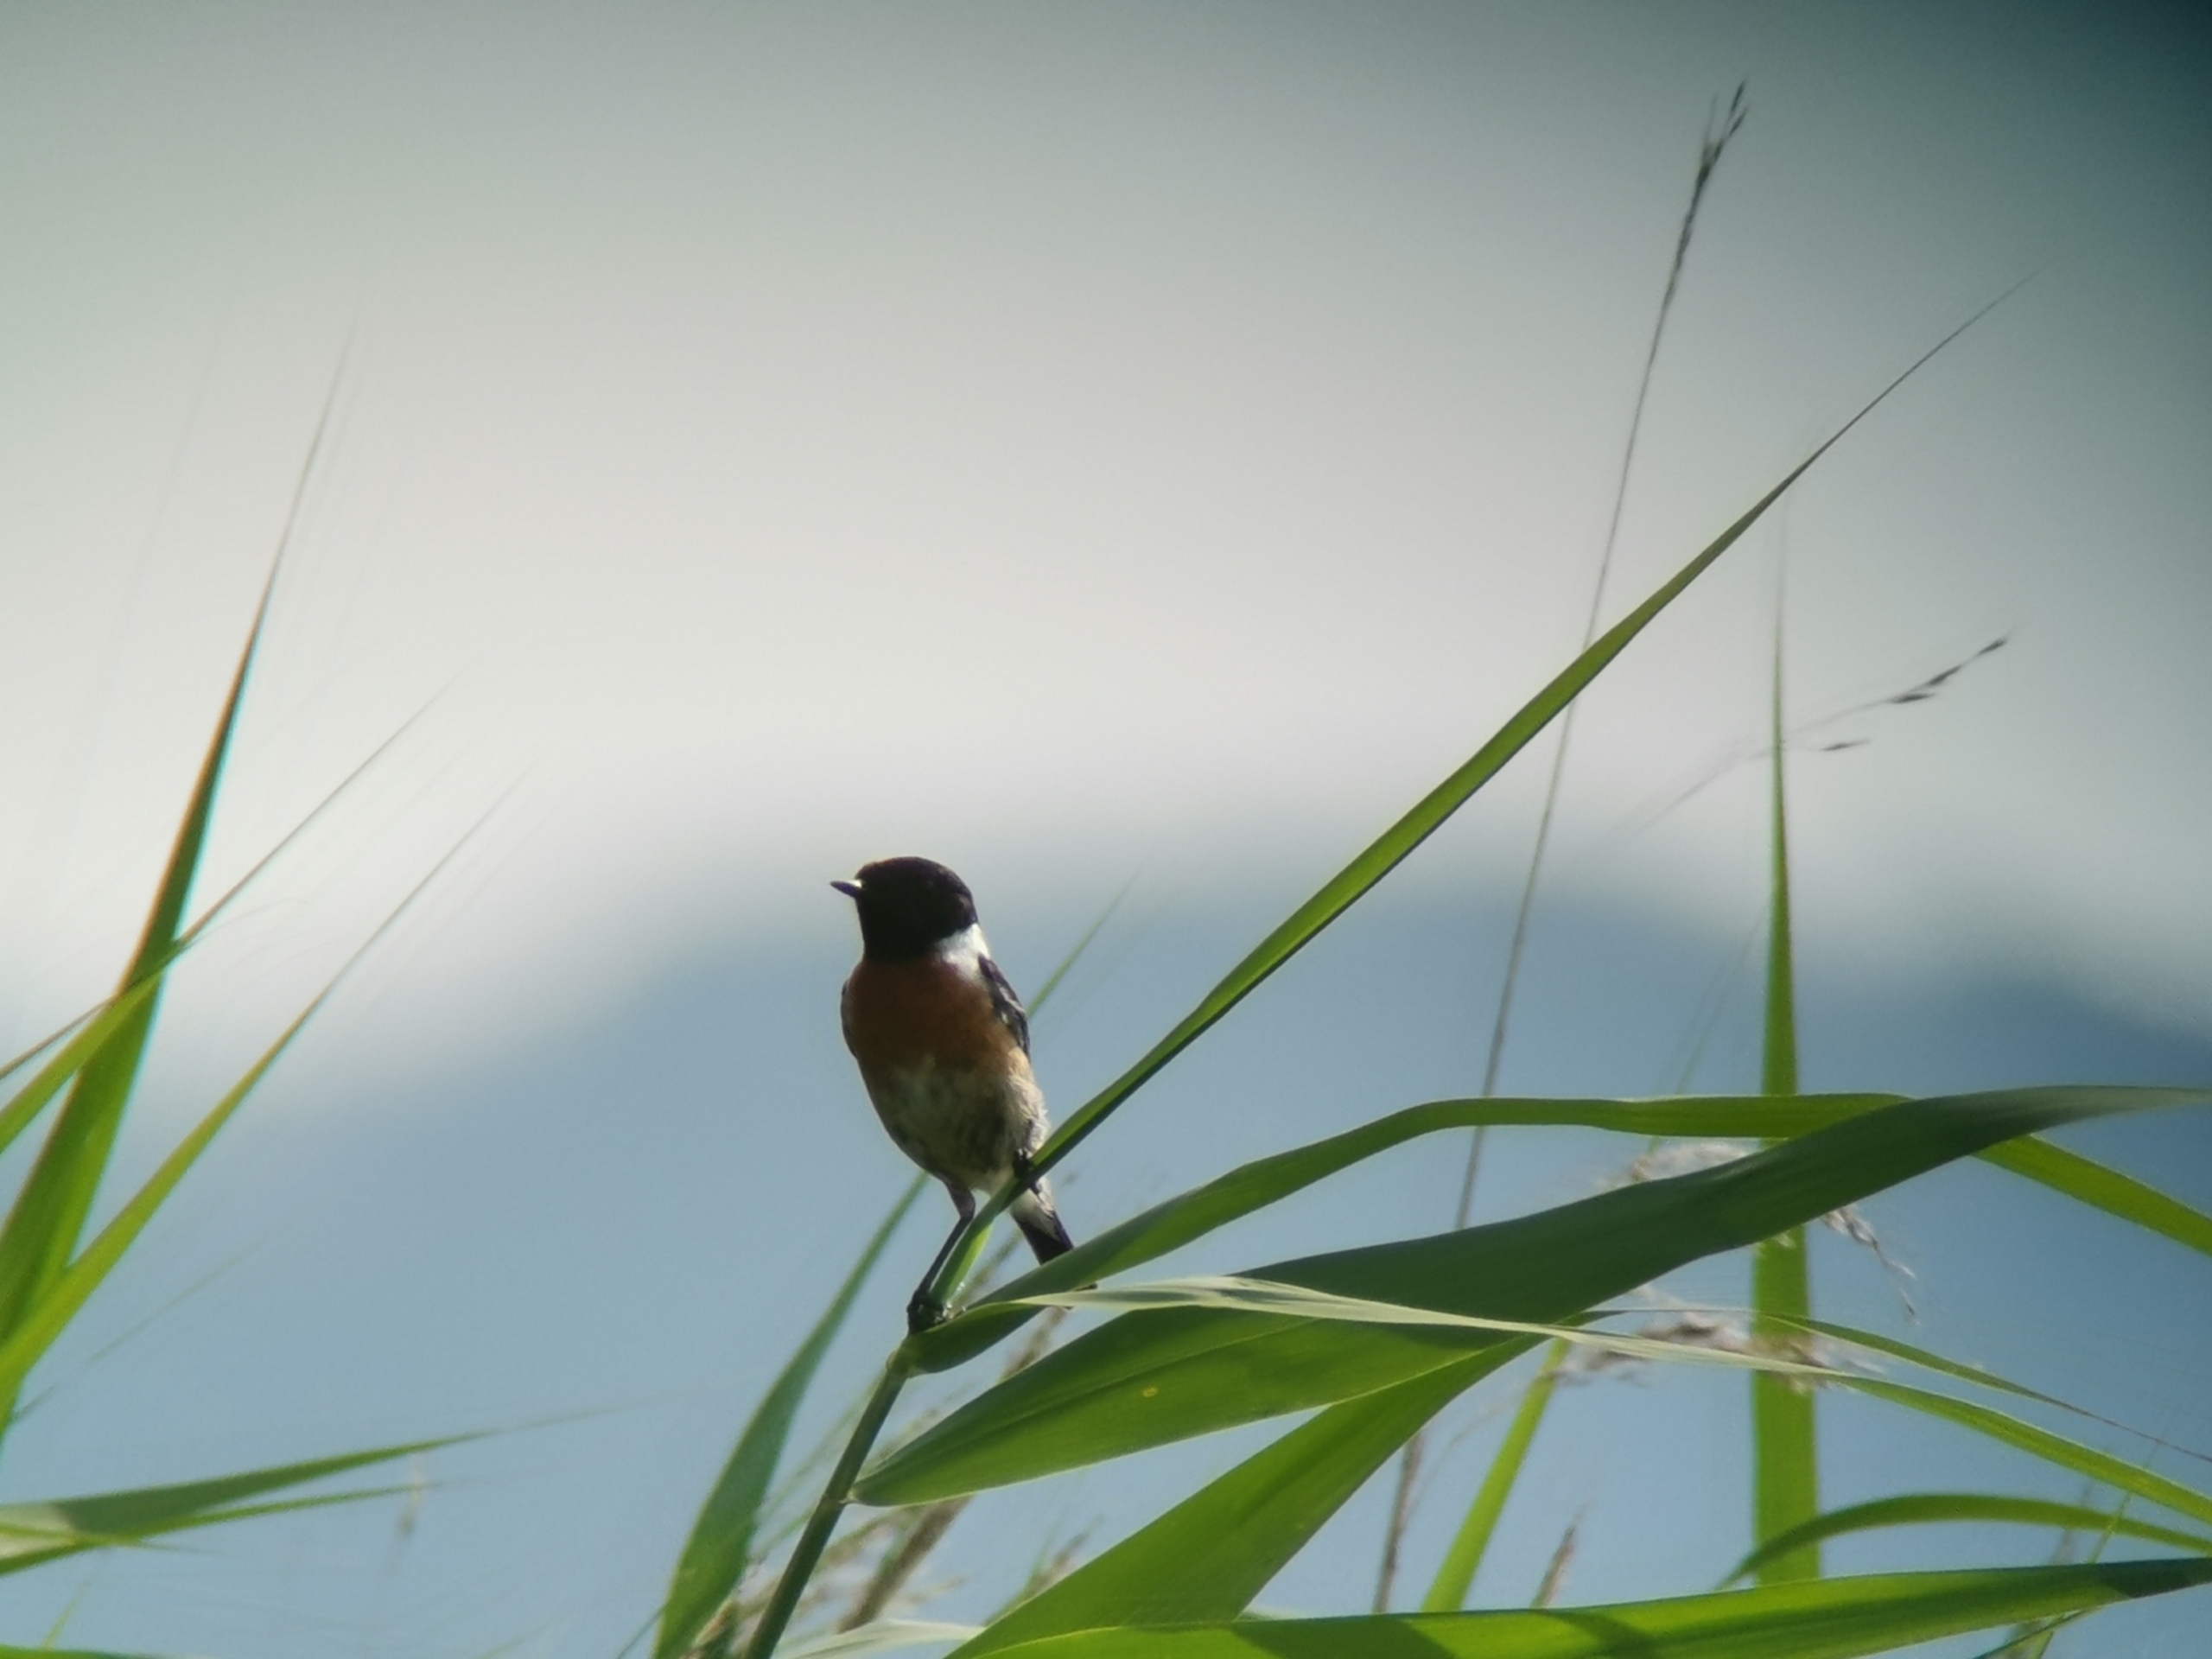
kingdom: Animalia
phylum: Chordata
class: Aves
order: Passeriformes
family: Muscicapidae
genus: Saxicola
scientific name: Saxicola rubicola
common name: Sortstrubet bynkefugl
